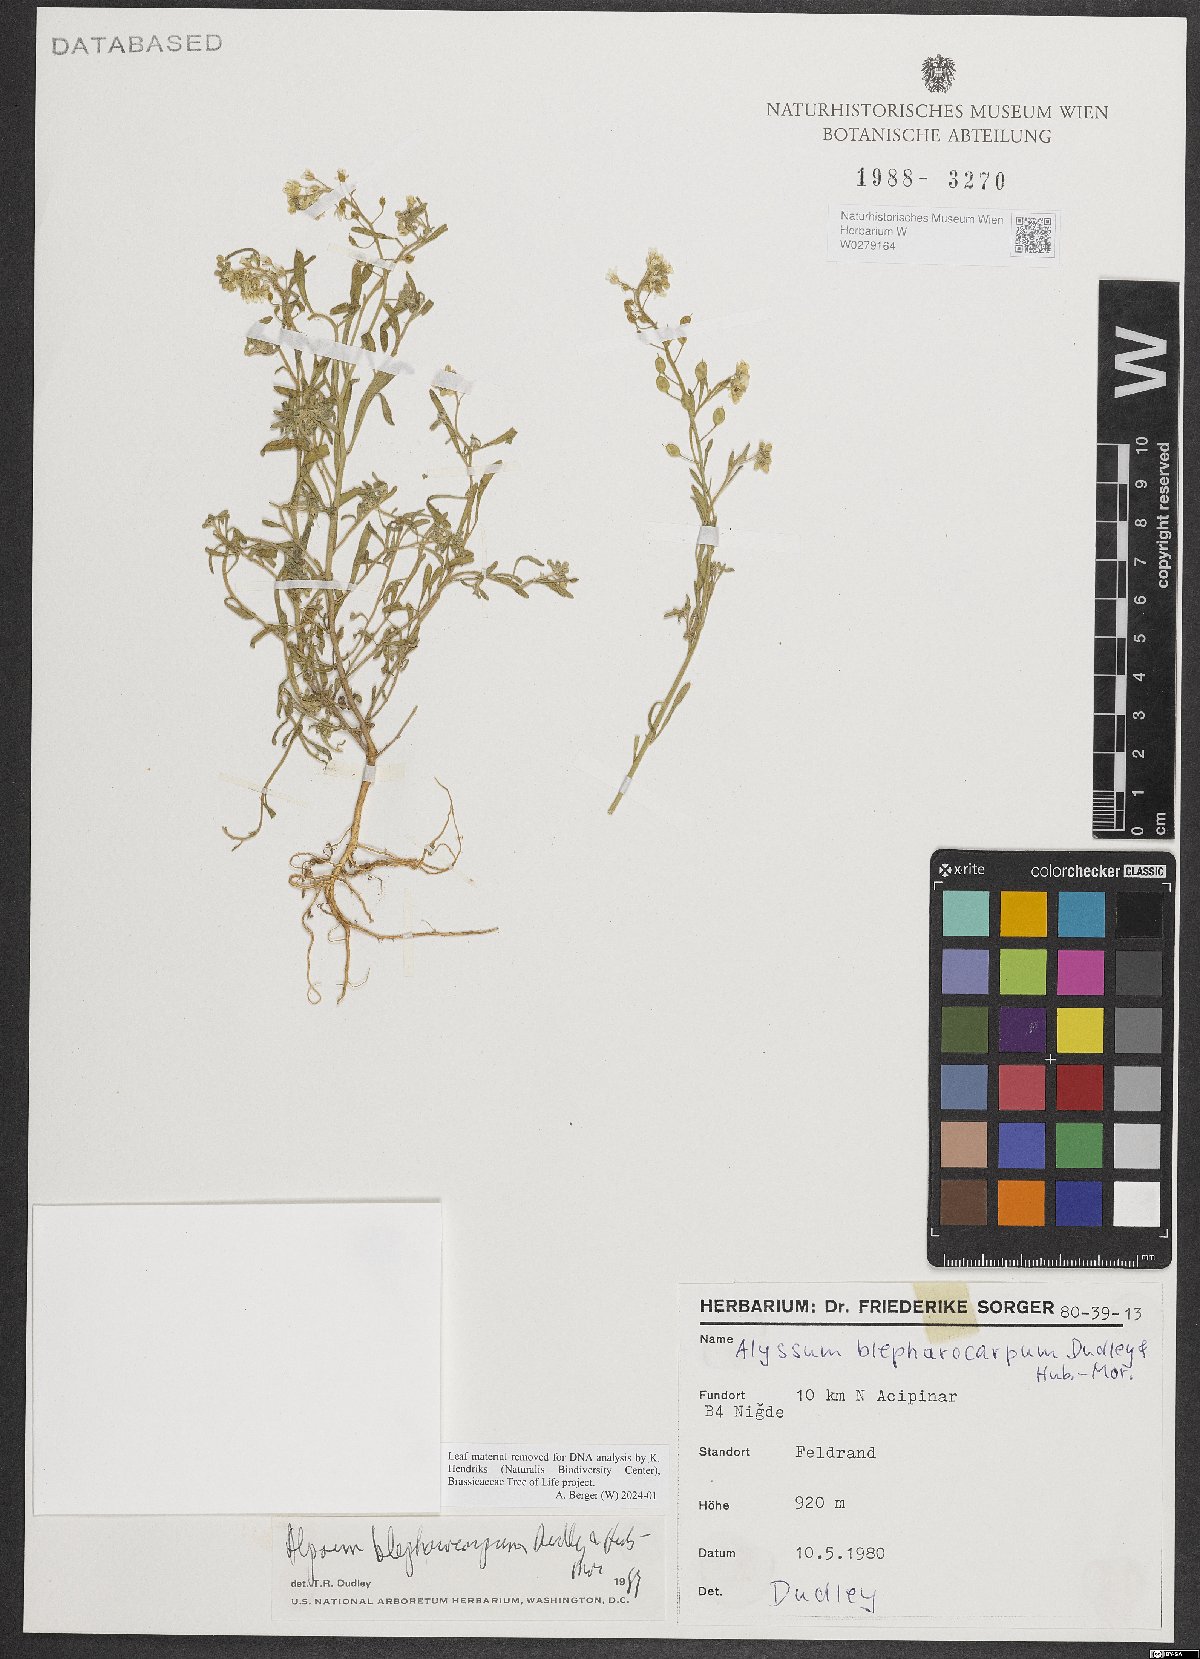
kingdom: Plantae
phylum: Tracheophyta
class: Magnoliopsida
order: Brassicales
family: Brassicaceae
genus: Meniocus
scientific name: Meniocus blepharocarpus
